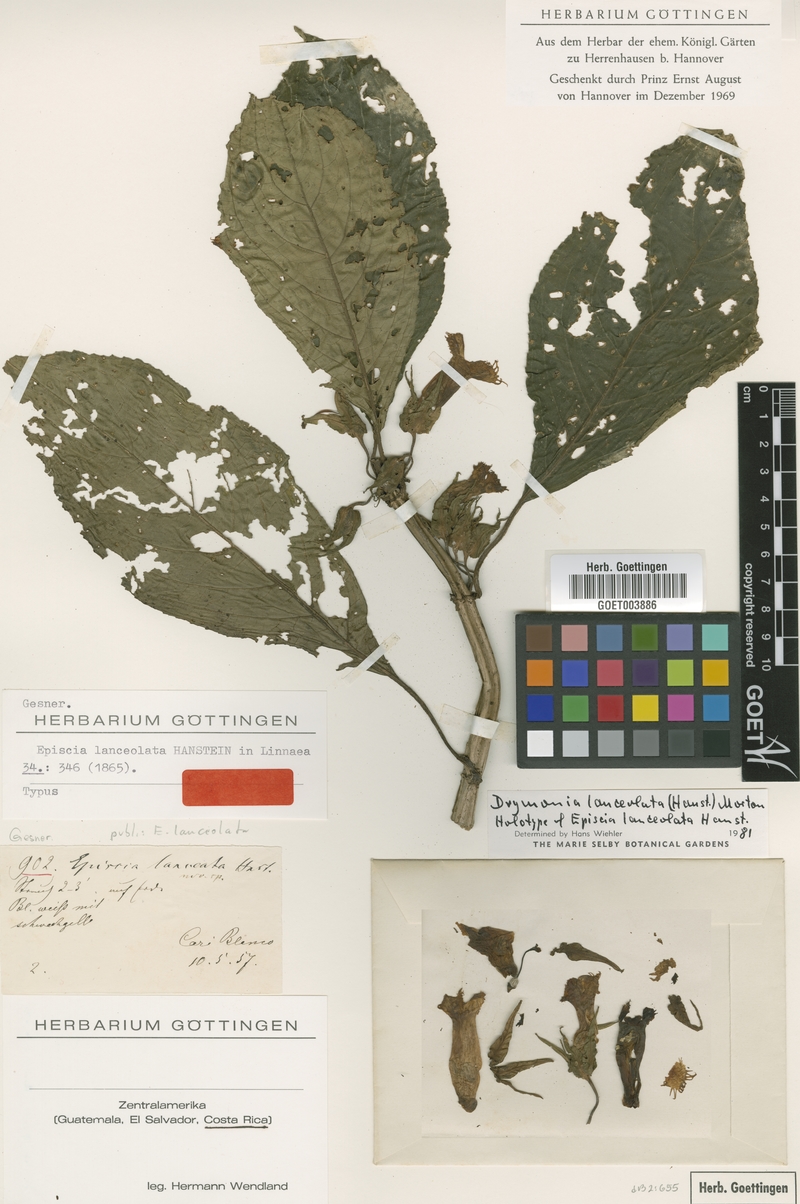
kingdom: Plantae
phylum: Tracheophyta
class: Magnoliopsida
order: Lamiales
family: Gesneriaceae
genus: Drymonia
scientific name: Drymonia lanceolata
